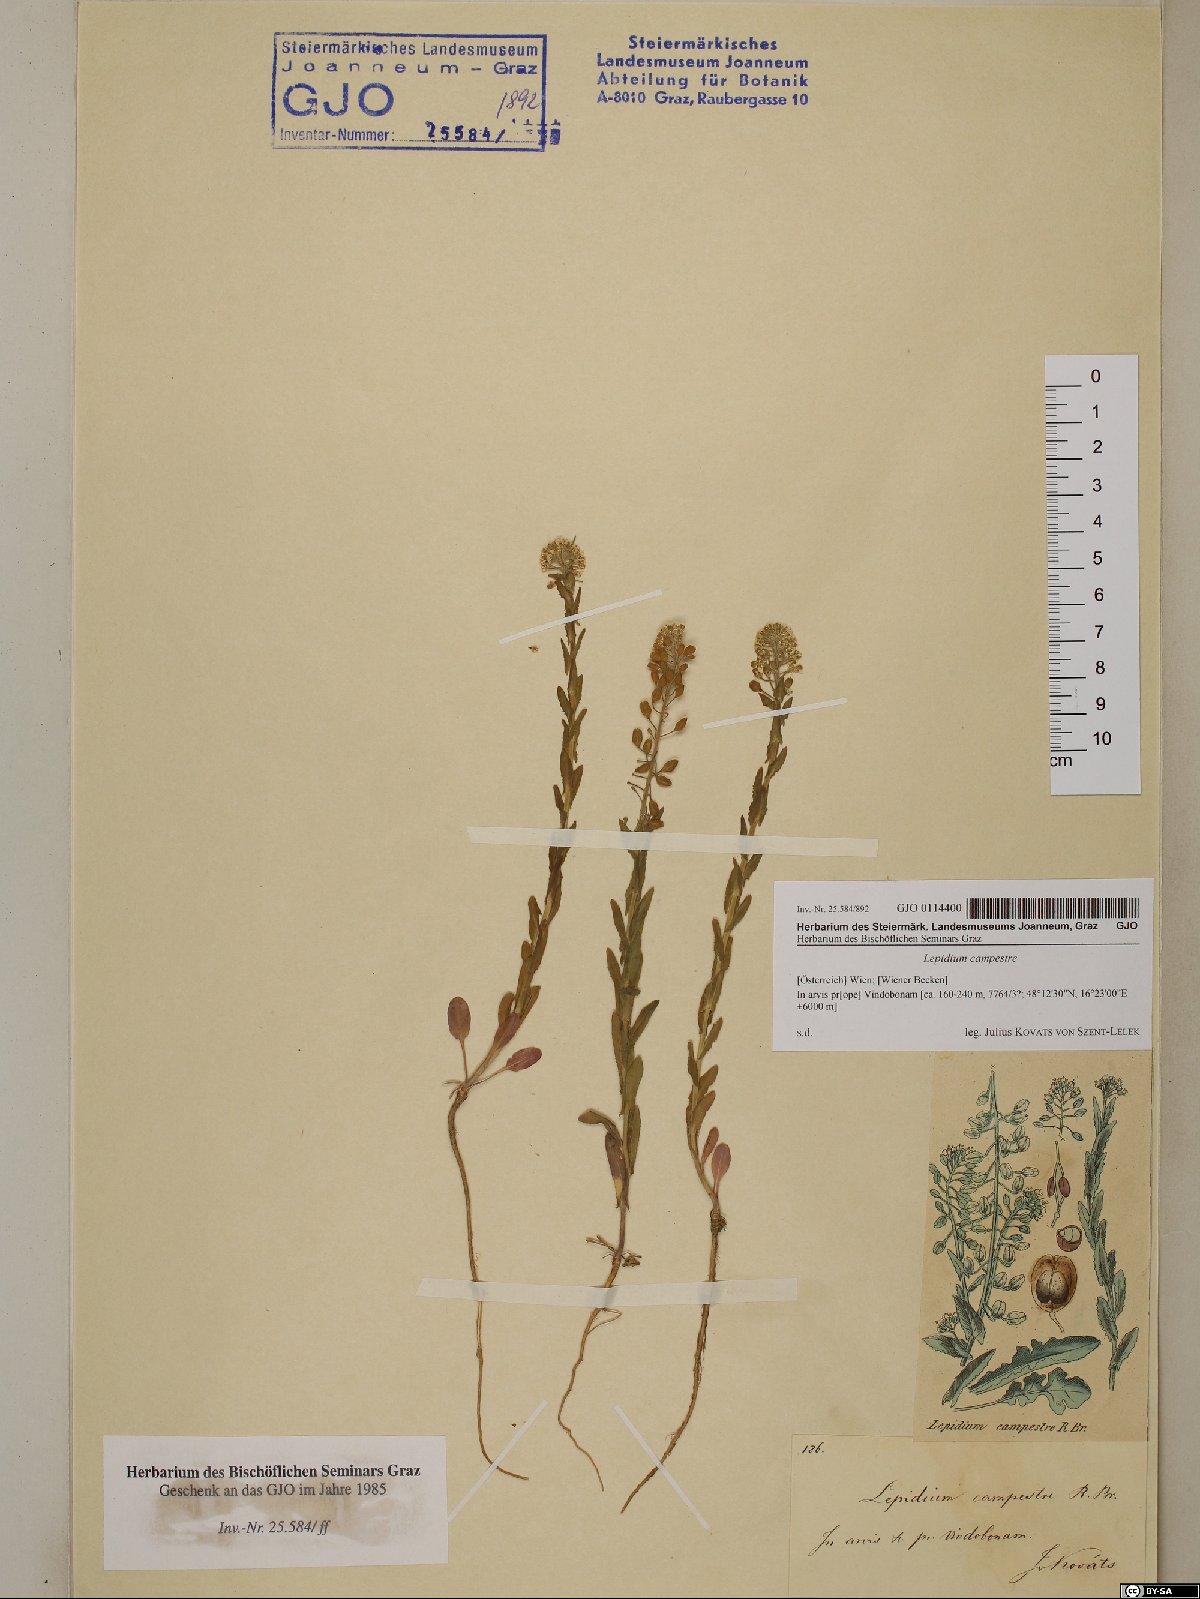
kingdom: Plantae
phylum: Tracheophyta
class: Magnoliopsida
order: Brassicales
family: Brassicaceae
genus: Lepidium
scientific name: Lepidium campestre
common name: Field pepperwort
